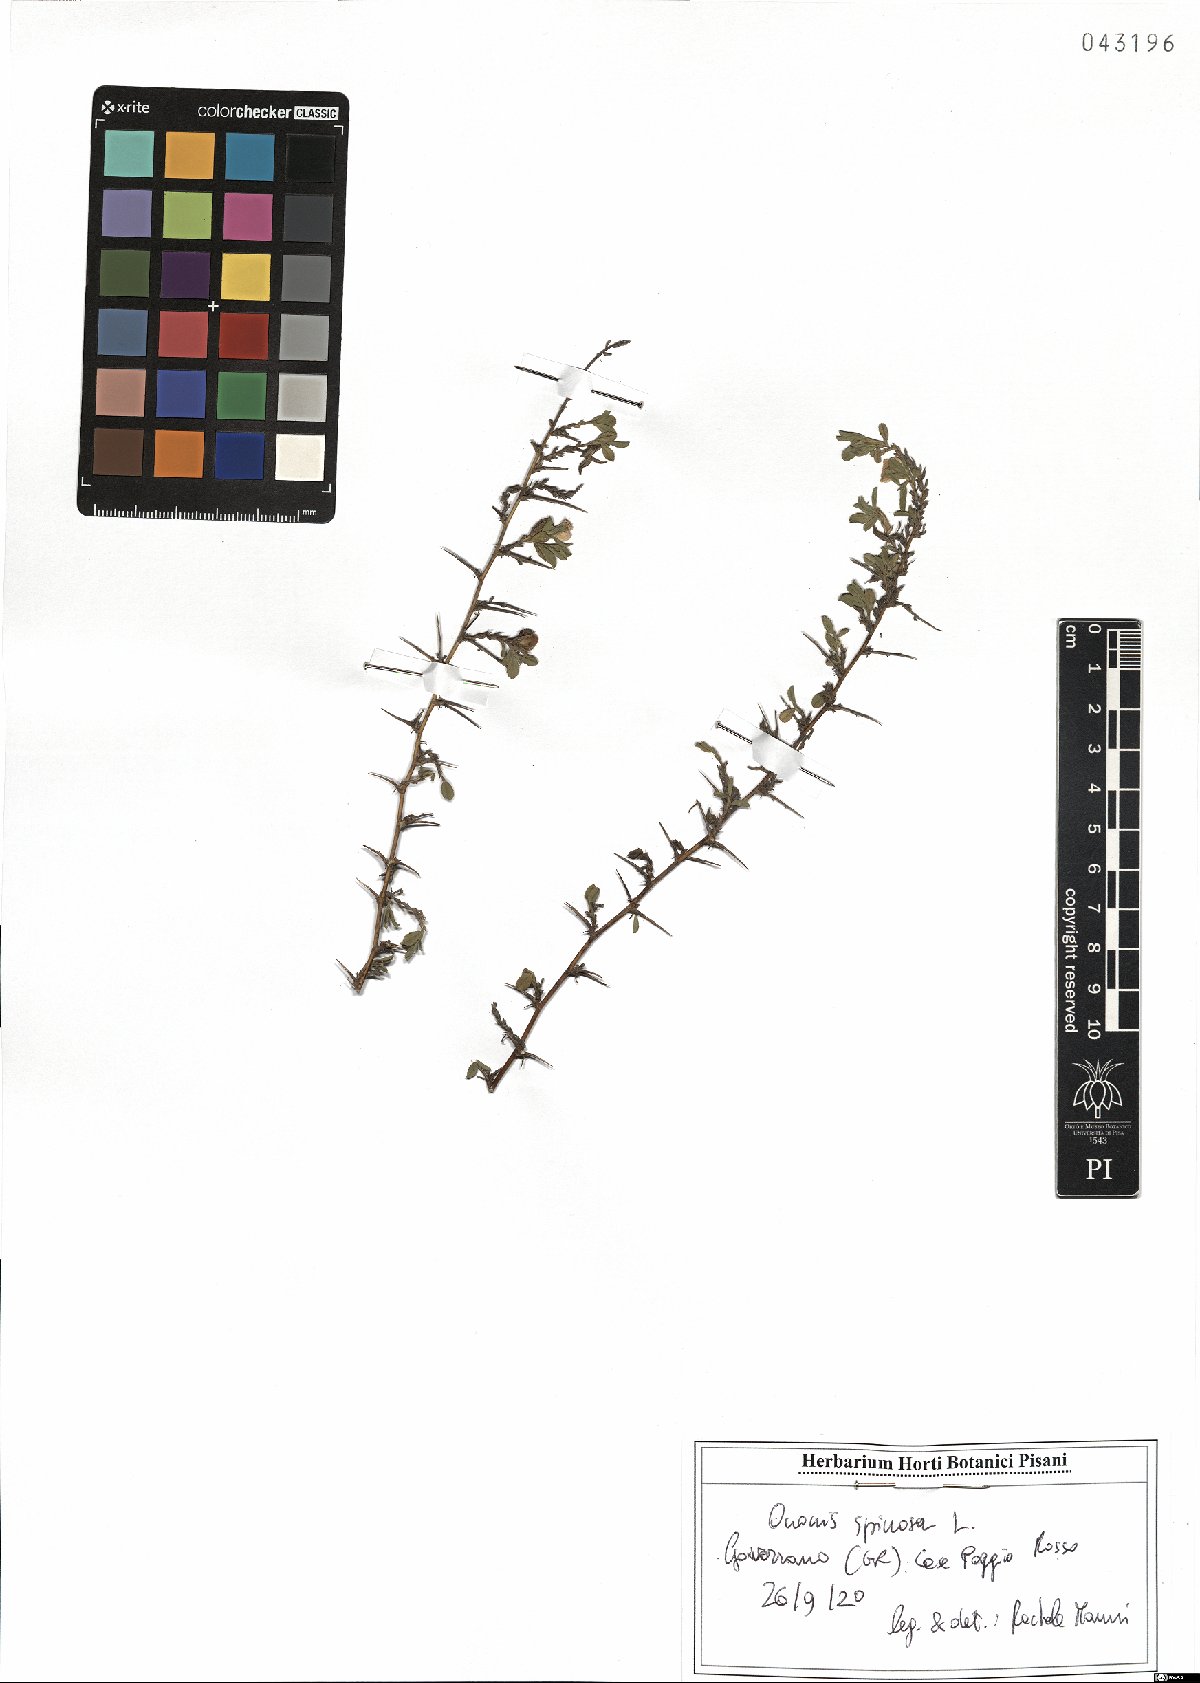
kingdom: Plantae
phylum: Tracheophyta
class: Magnoliopsida
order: Fabales
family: Fabaceae
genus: Ononis
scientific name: Ononis spinosa
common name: Spiny restharrow
